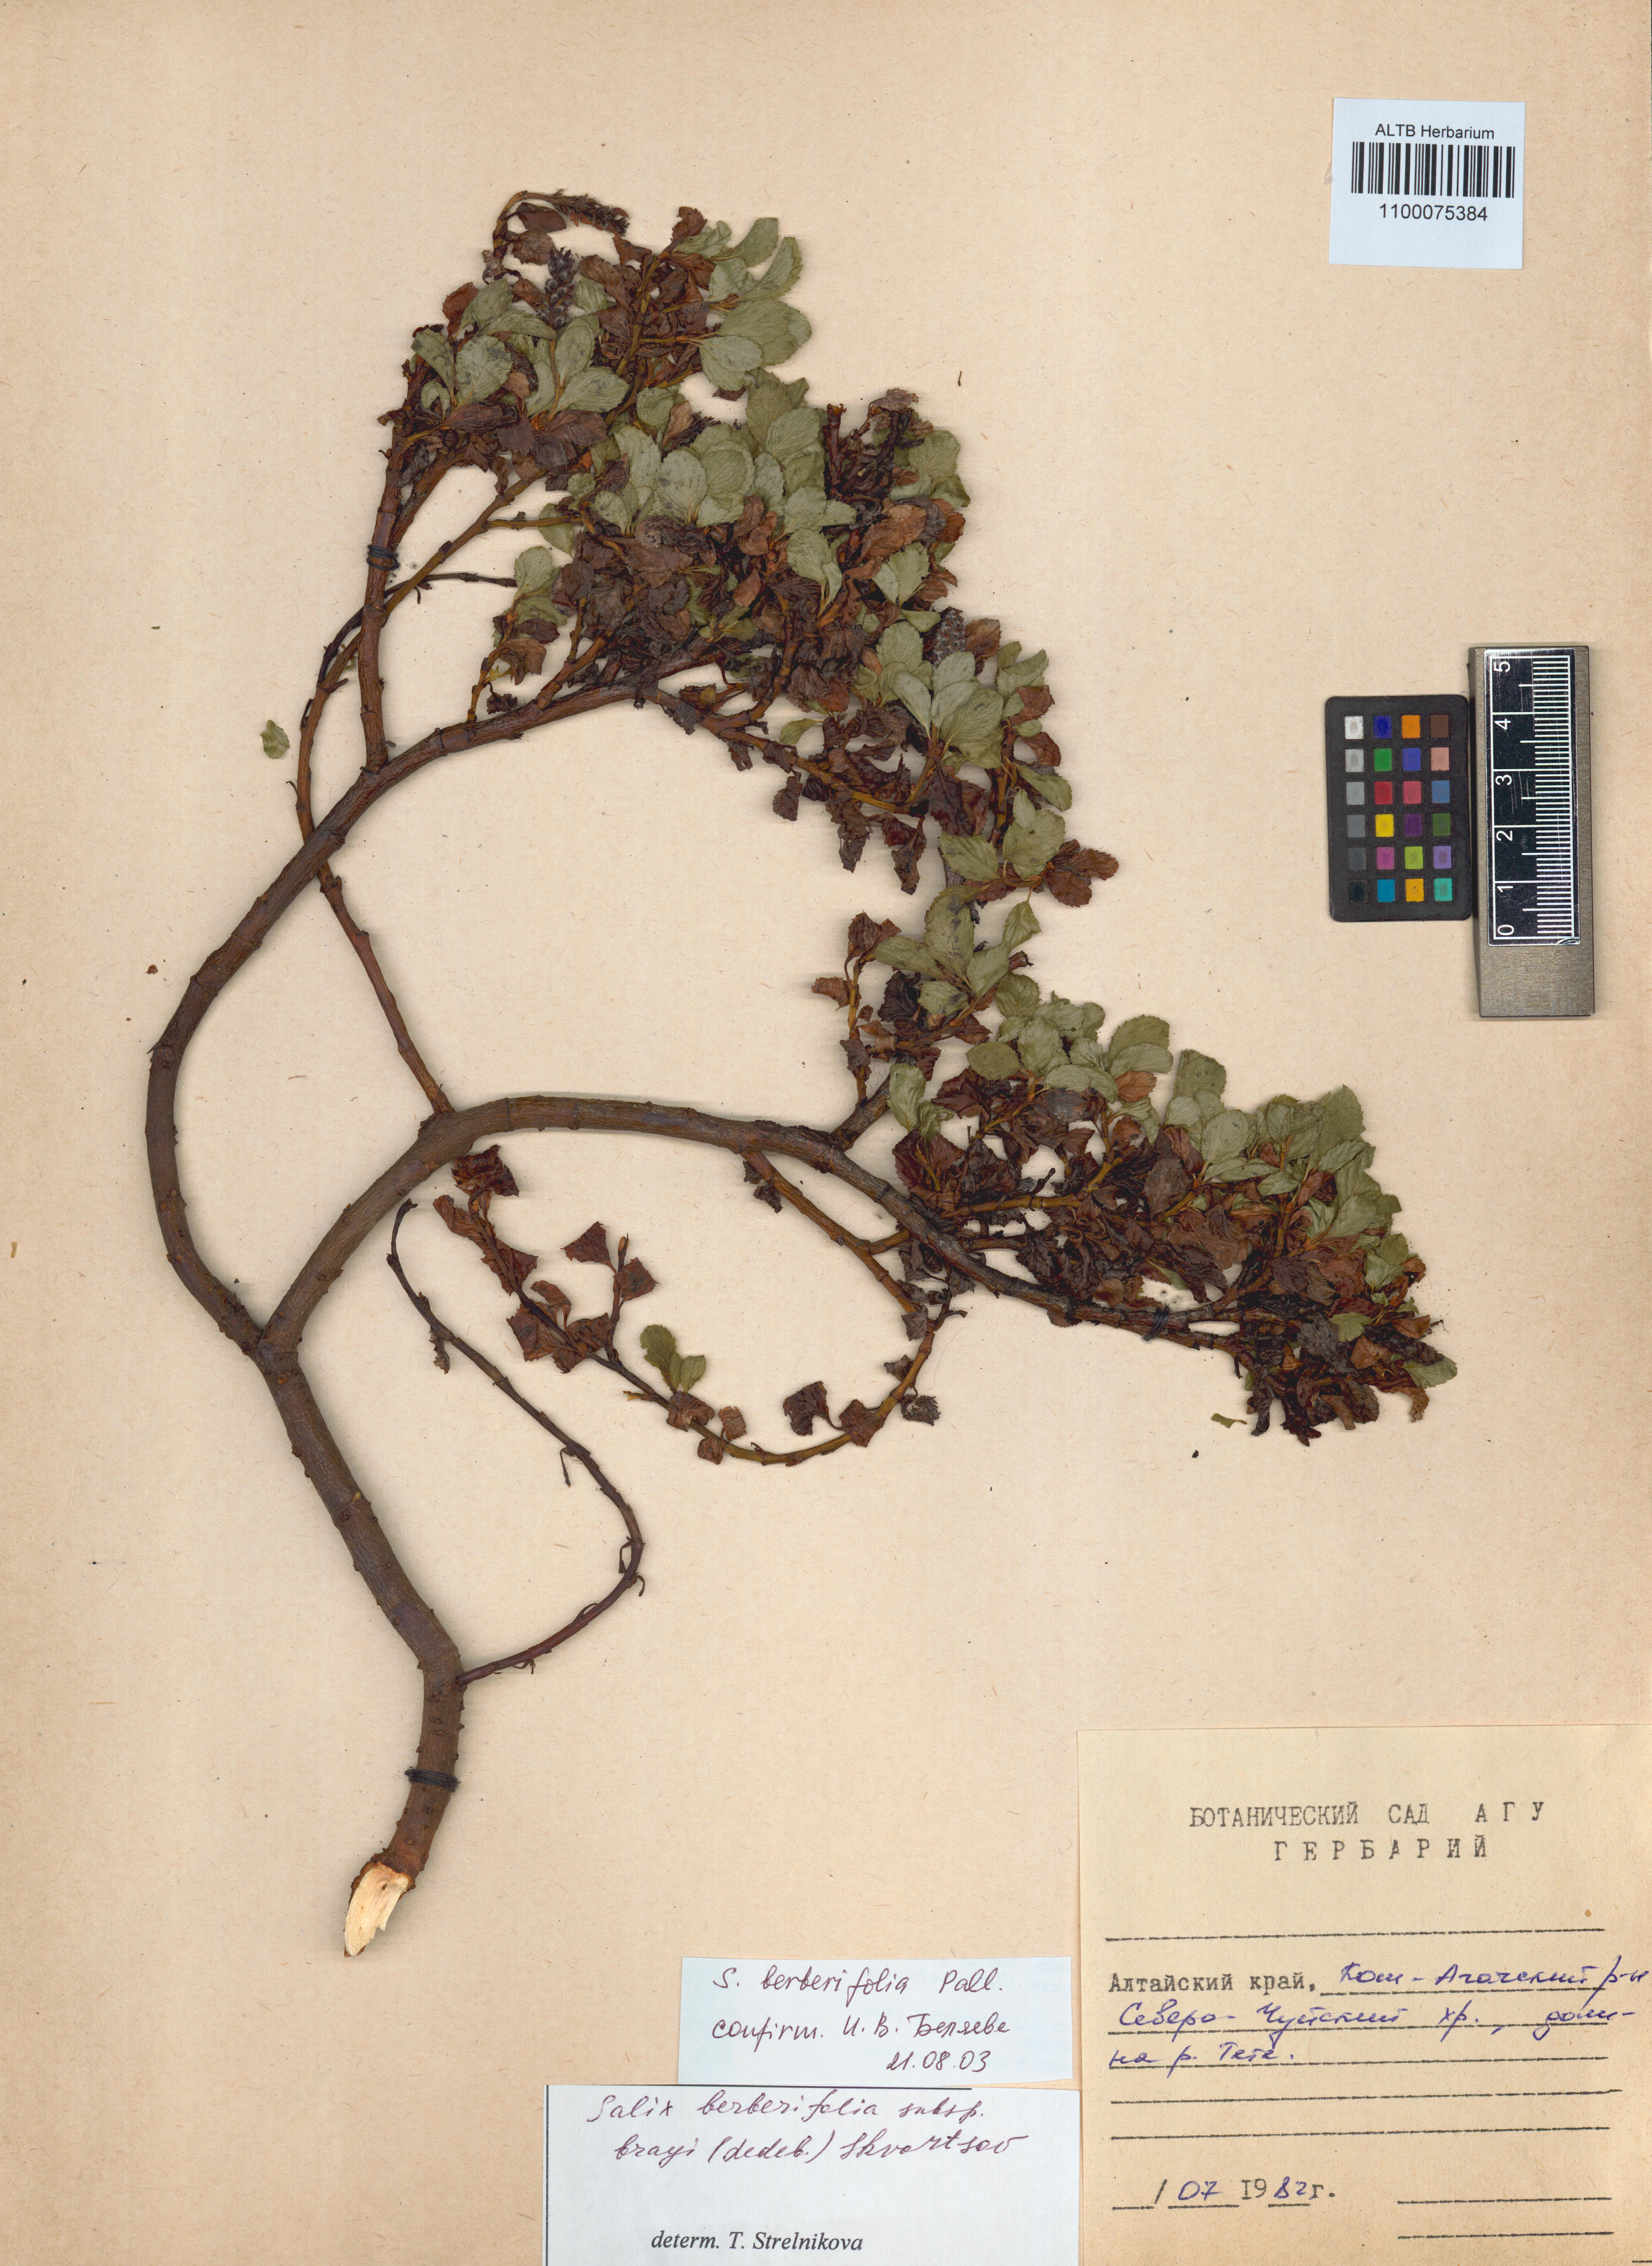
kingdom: Plantae
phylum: Tracheophyta
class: Magnoliopsida
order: Malpighiales
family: Salicaceae
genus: Salix
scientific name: Salix berberifolia
